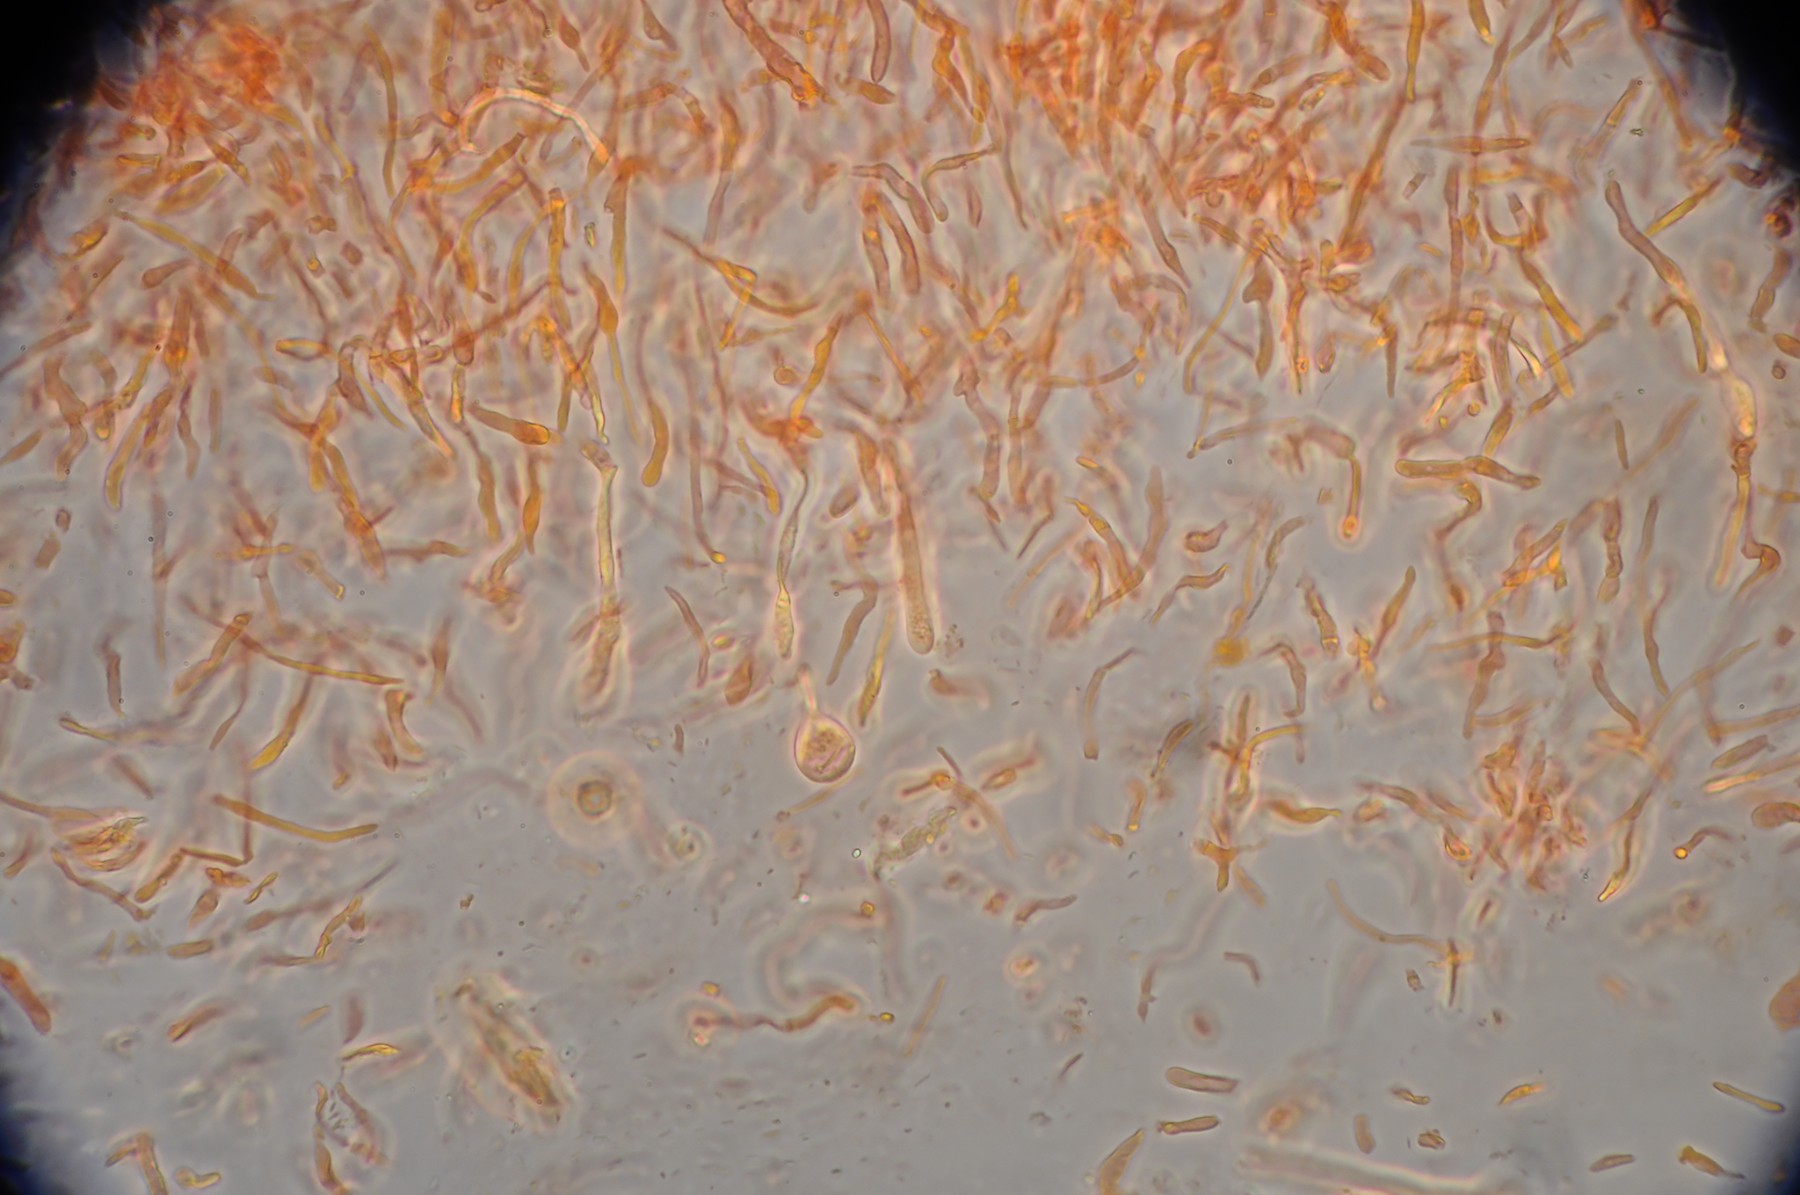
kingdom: Fungi
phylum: Basidiomycota
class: Agaricomycetes
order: Russulales
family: Russulaceae
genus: Russula
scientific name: Russula laeta
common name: orangerosa skørhat
